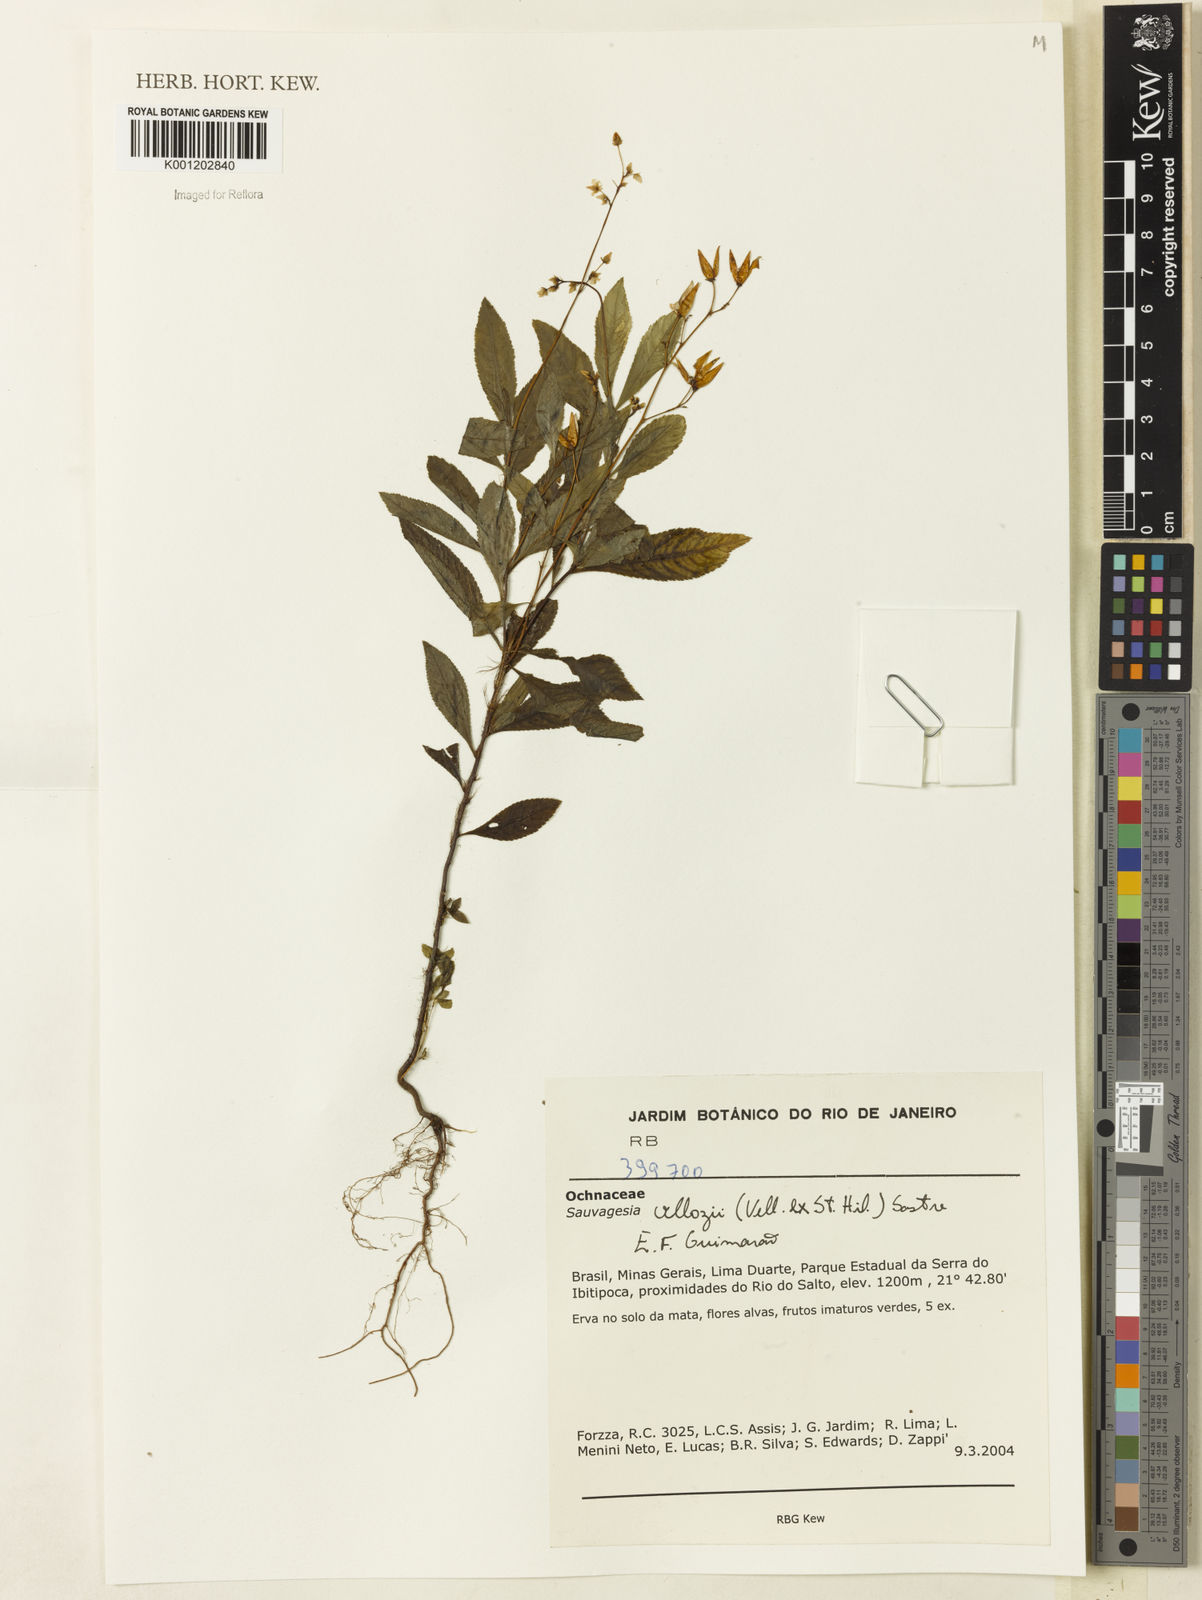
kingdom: Plantae
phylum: Tracheophyta
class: Magnoliopsida
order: Malpighiales
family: Ochnaceae
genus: Sauvagesia
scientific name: Sauvagesia
